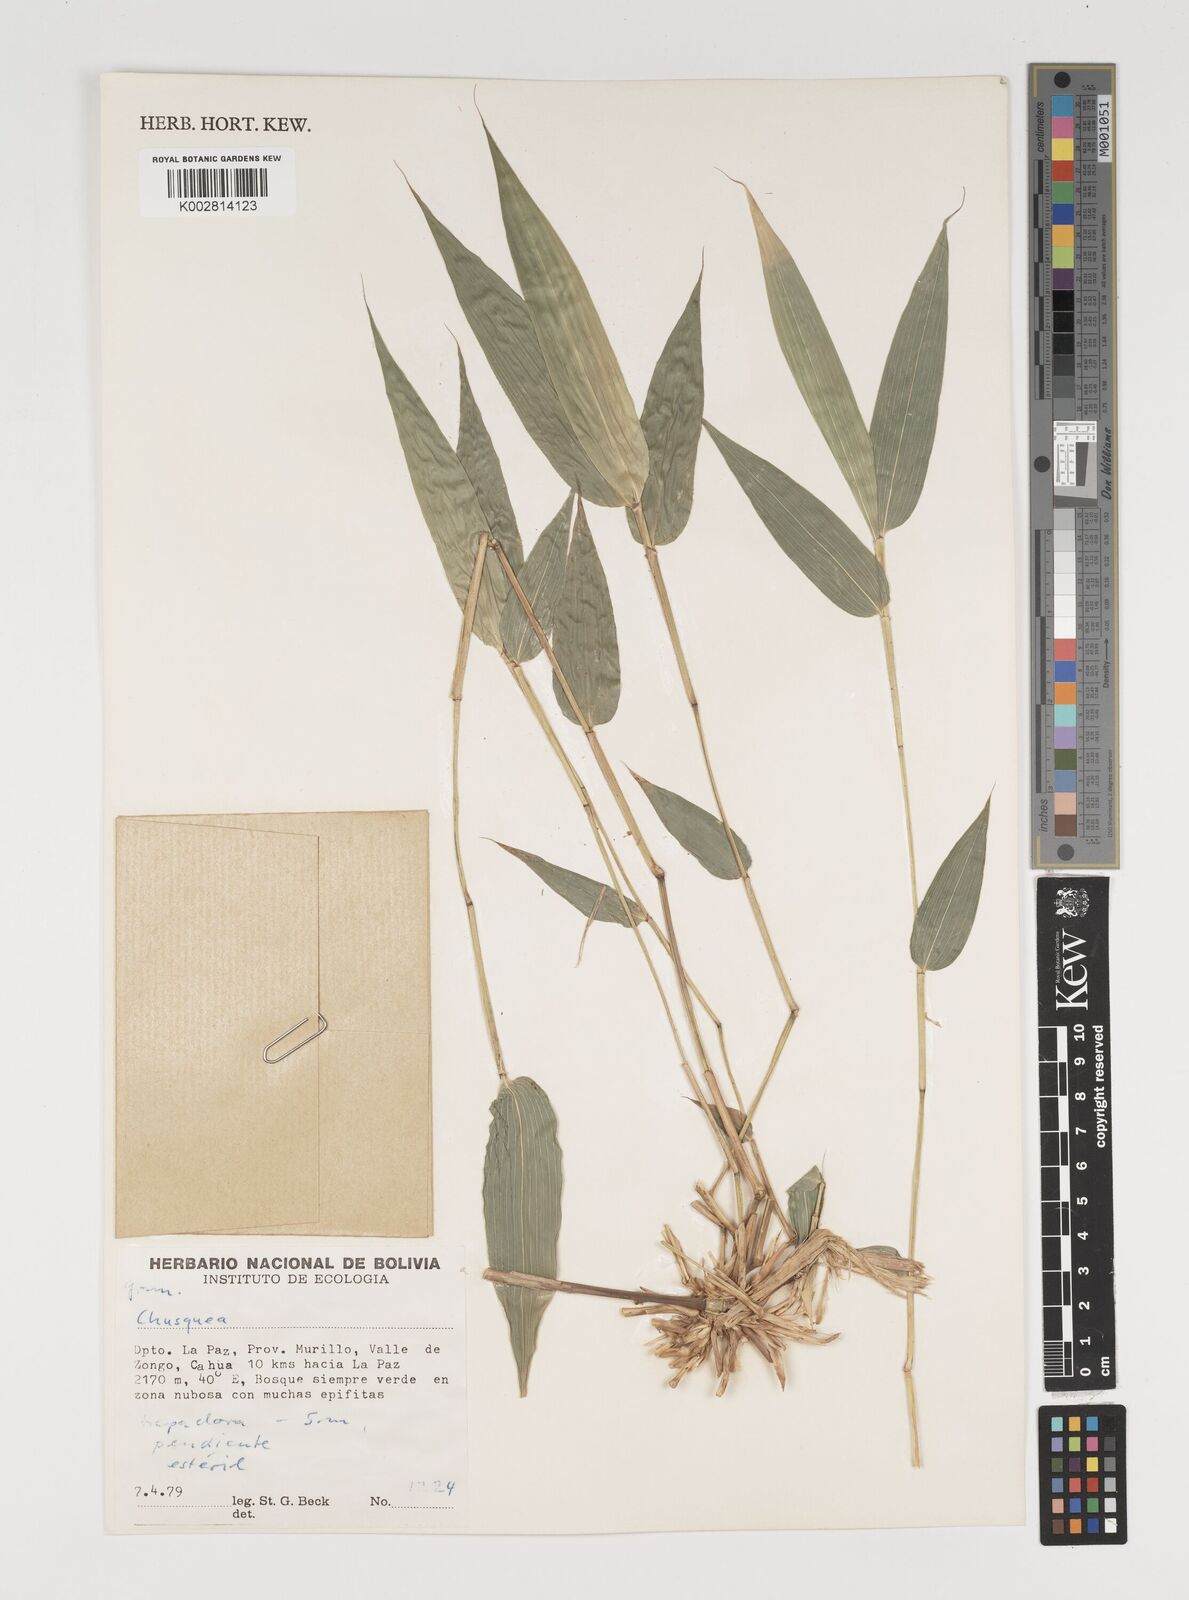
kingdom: Plantae
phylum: Tracheophyta
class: Liliopsida
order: Poales
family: Poaceae
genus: Chusquea
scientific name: Chusquea
